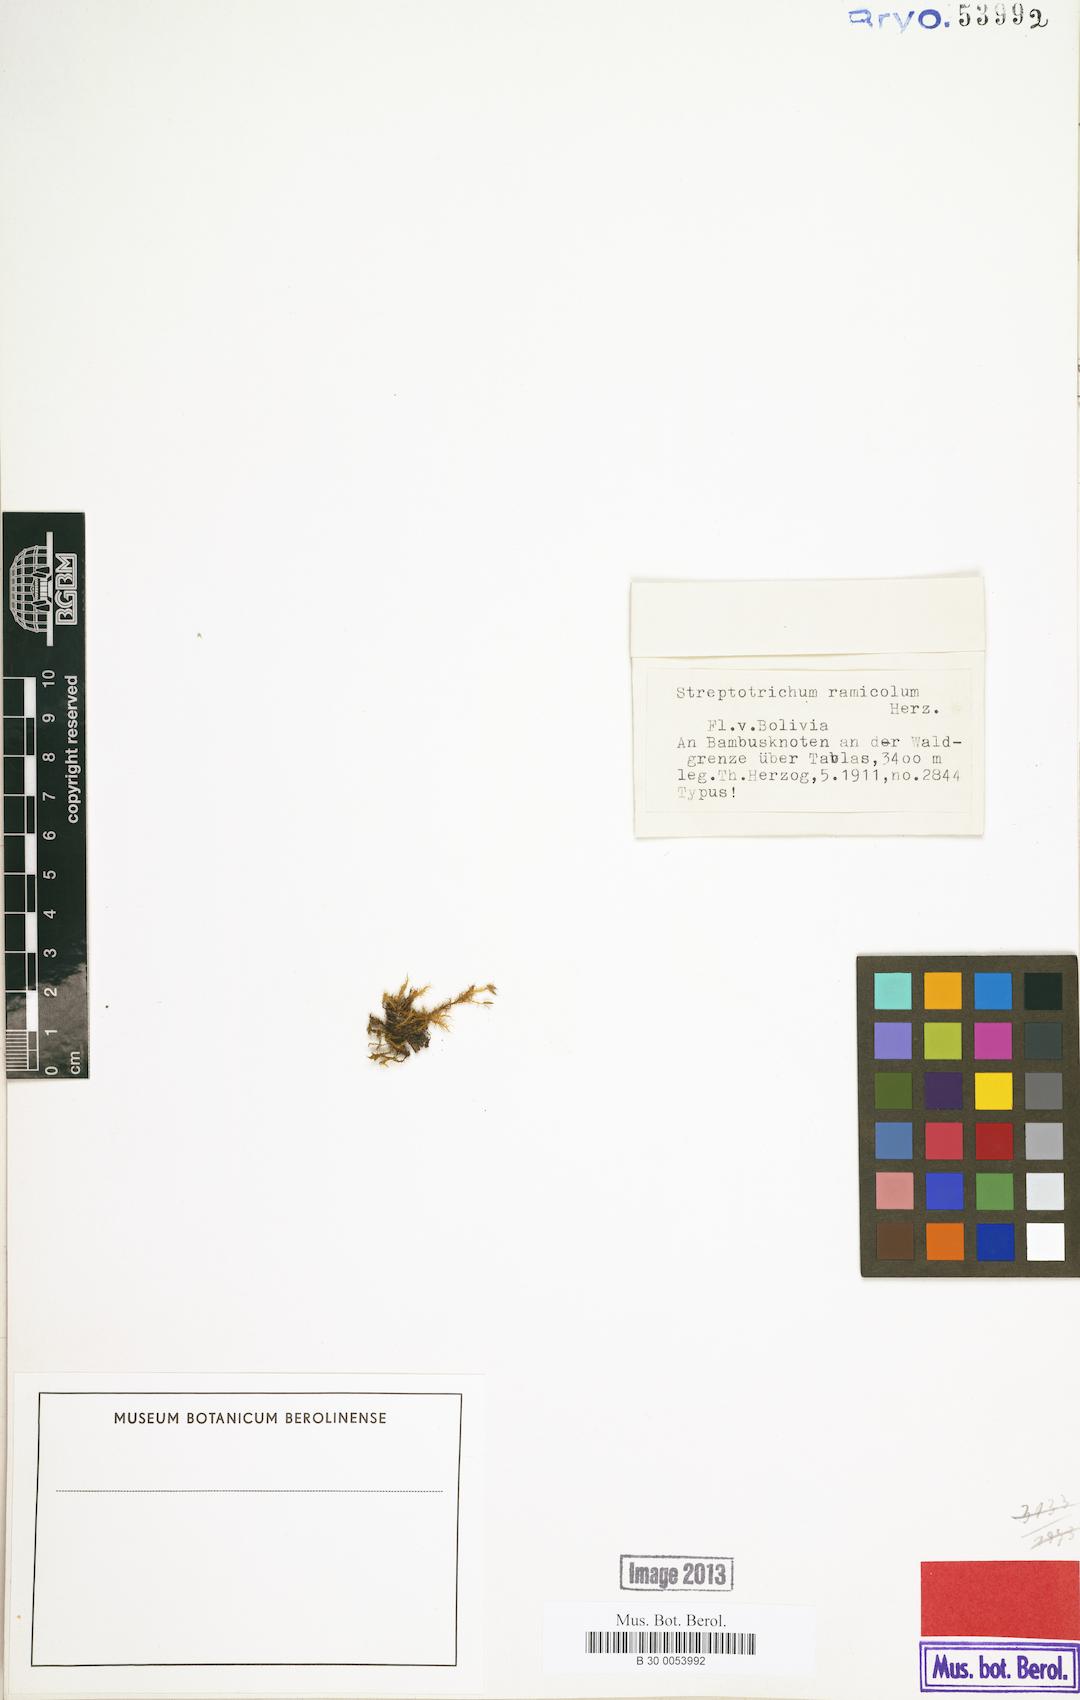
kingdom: Plantae
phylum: Bryophyta
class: Bryopsida
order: Pottiales
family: Pottiaceae
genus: Streptotrichum
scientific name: Streptotrichum ramicola
